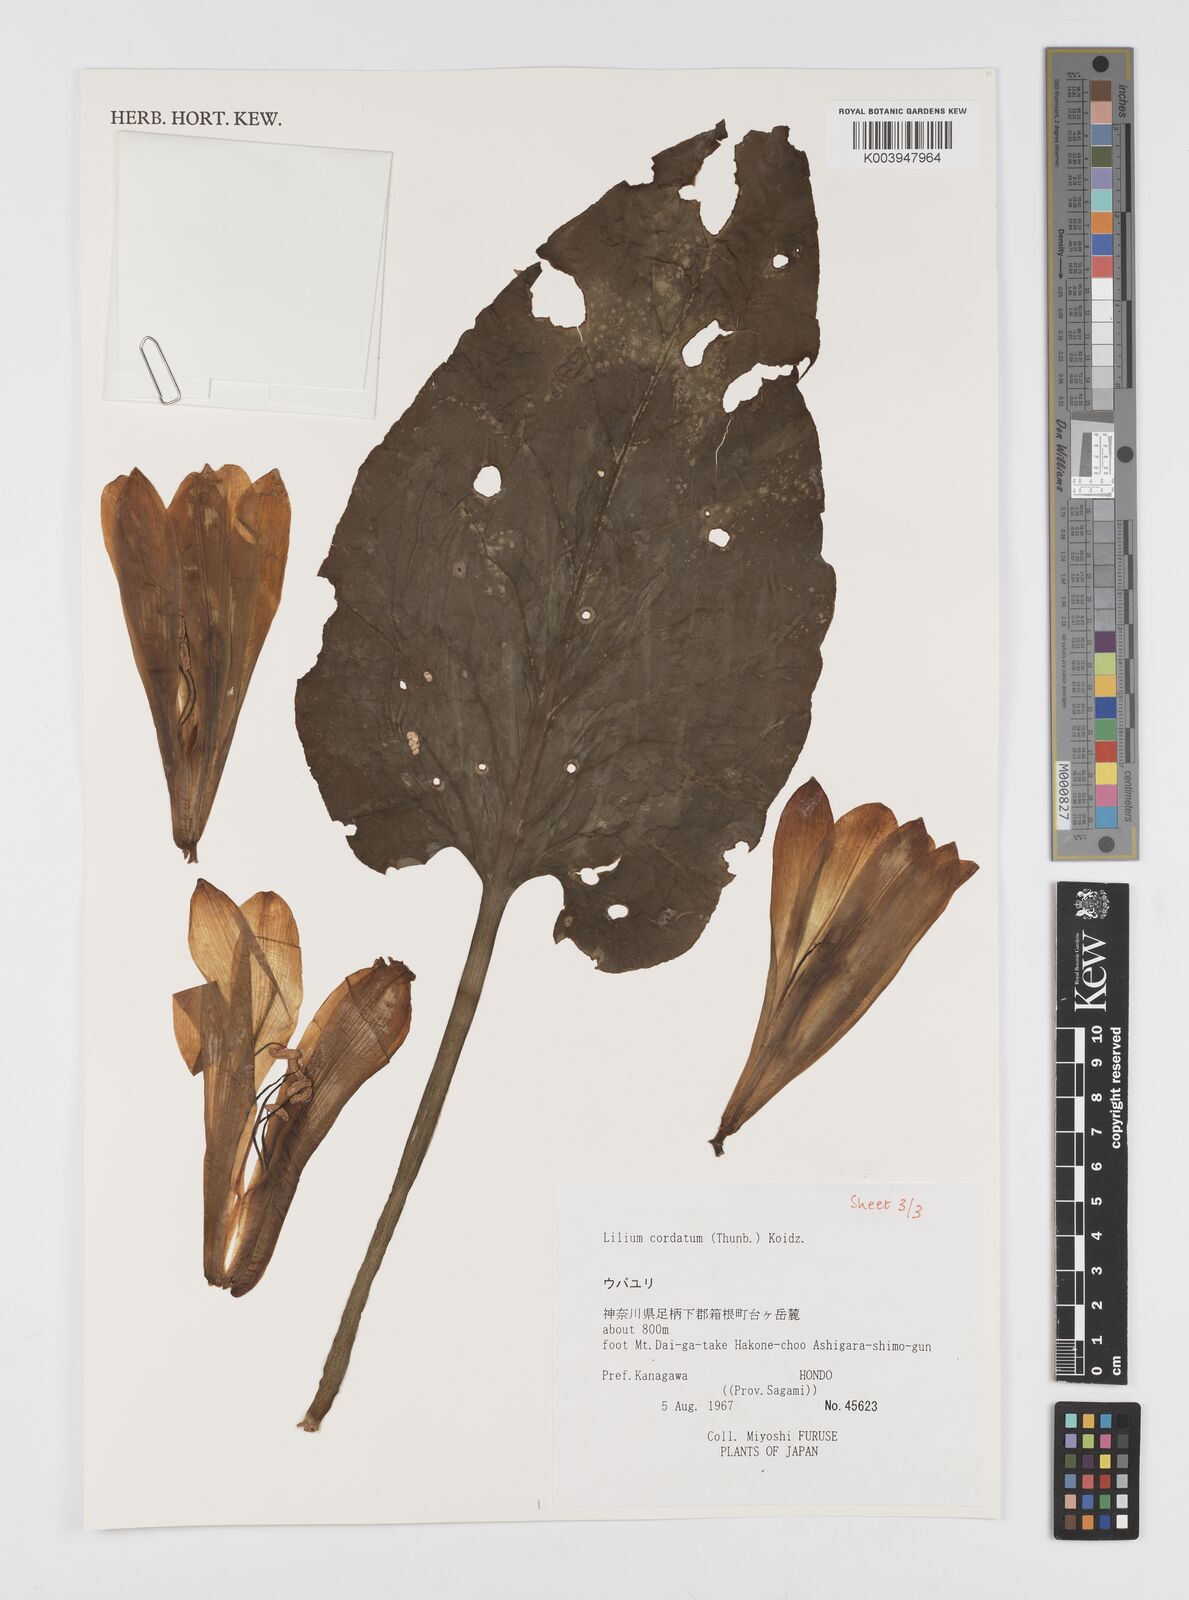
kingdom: Plantae
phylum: Tracheophyta
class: Liliopsida
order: Liliales
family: Liliaceae
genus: Cardiocrinum
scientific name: Cardiocrinum cordatum
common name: Lily
